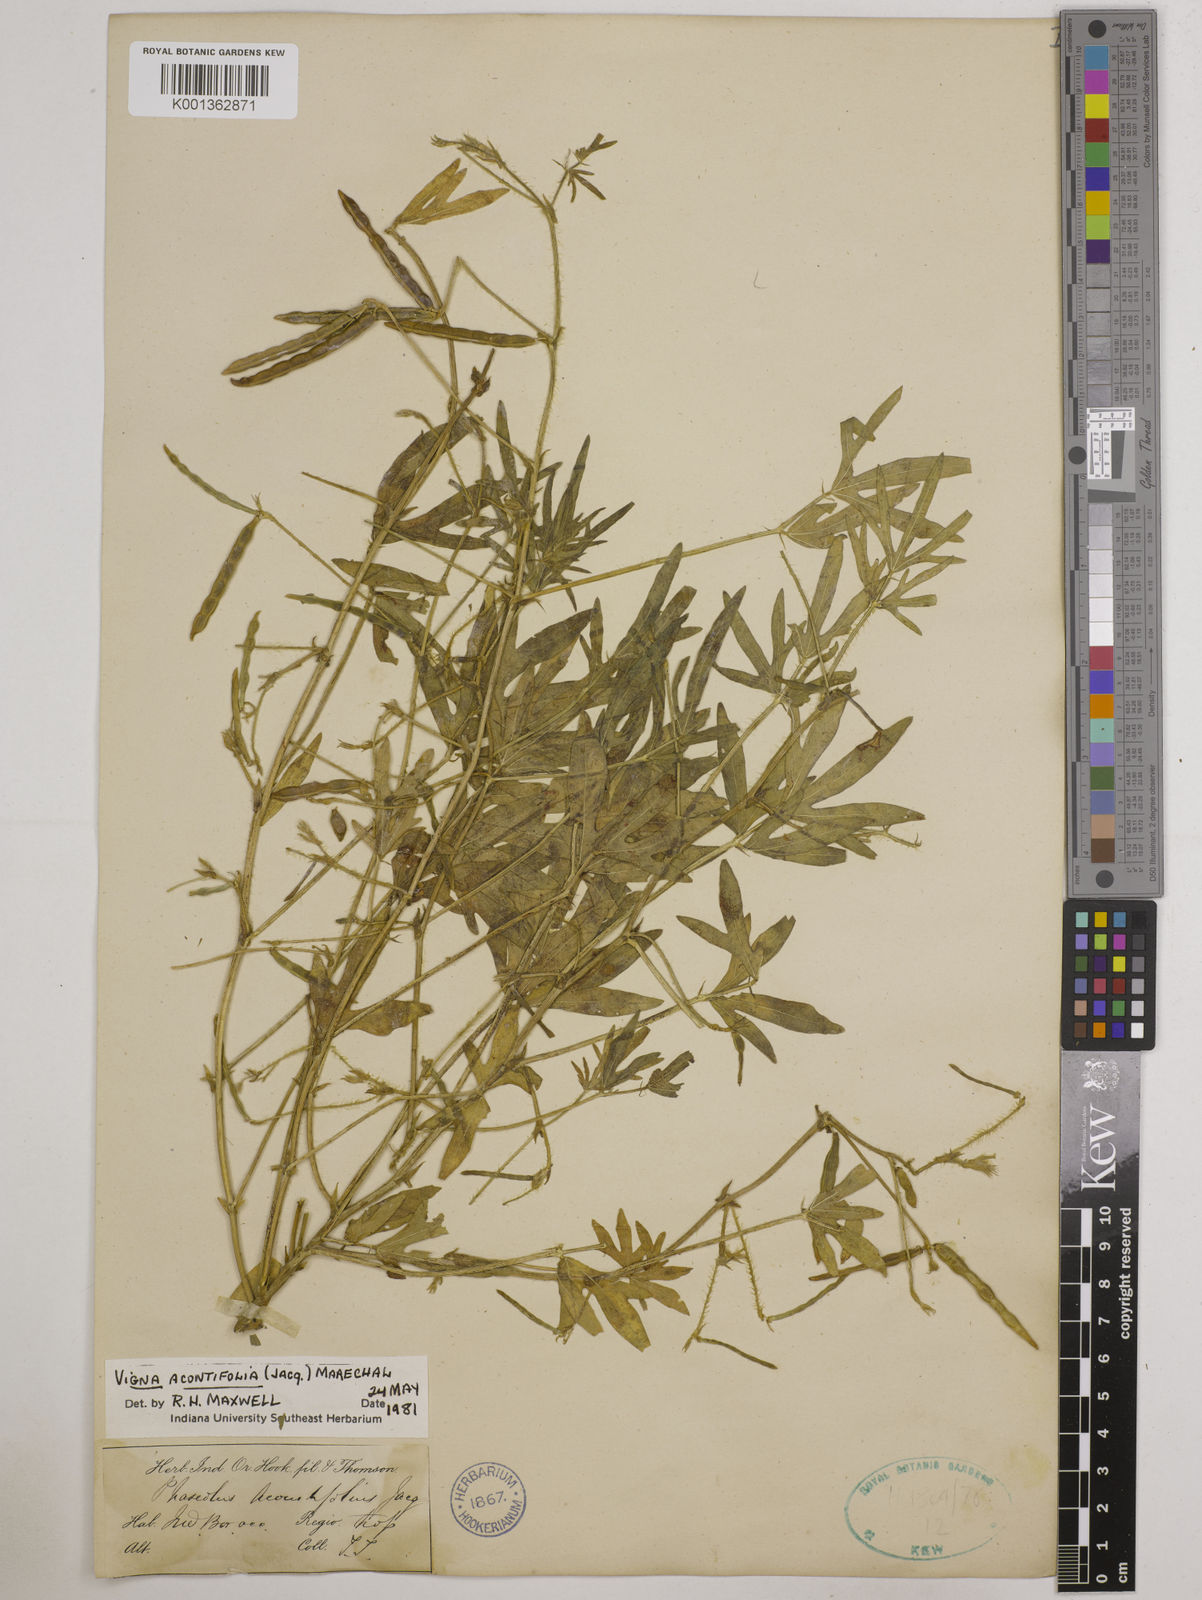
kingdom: Plantae
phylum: Tracheophyta
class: Magnoliopsida
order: Fabales
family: Fabaceae
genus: Vigna
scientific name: Vigna aconitifolia
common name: Dew bean
